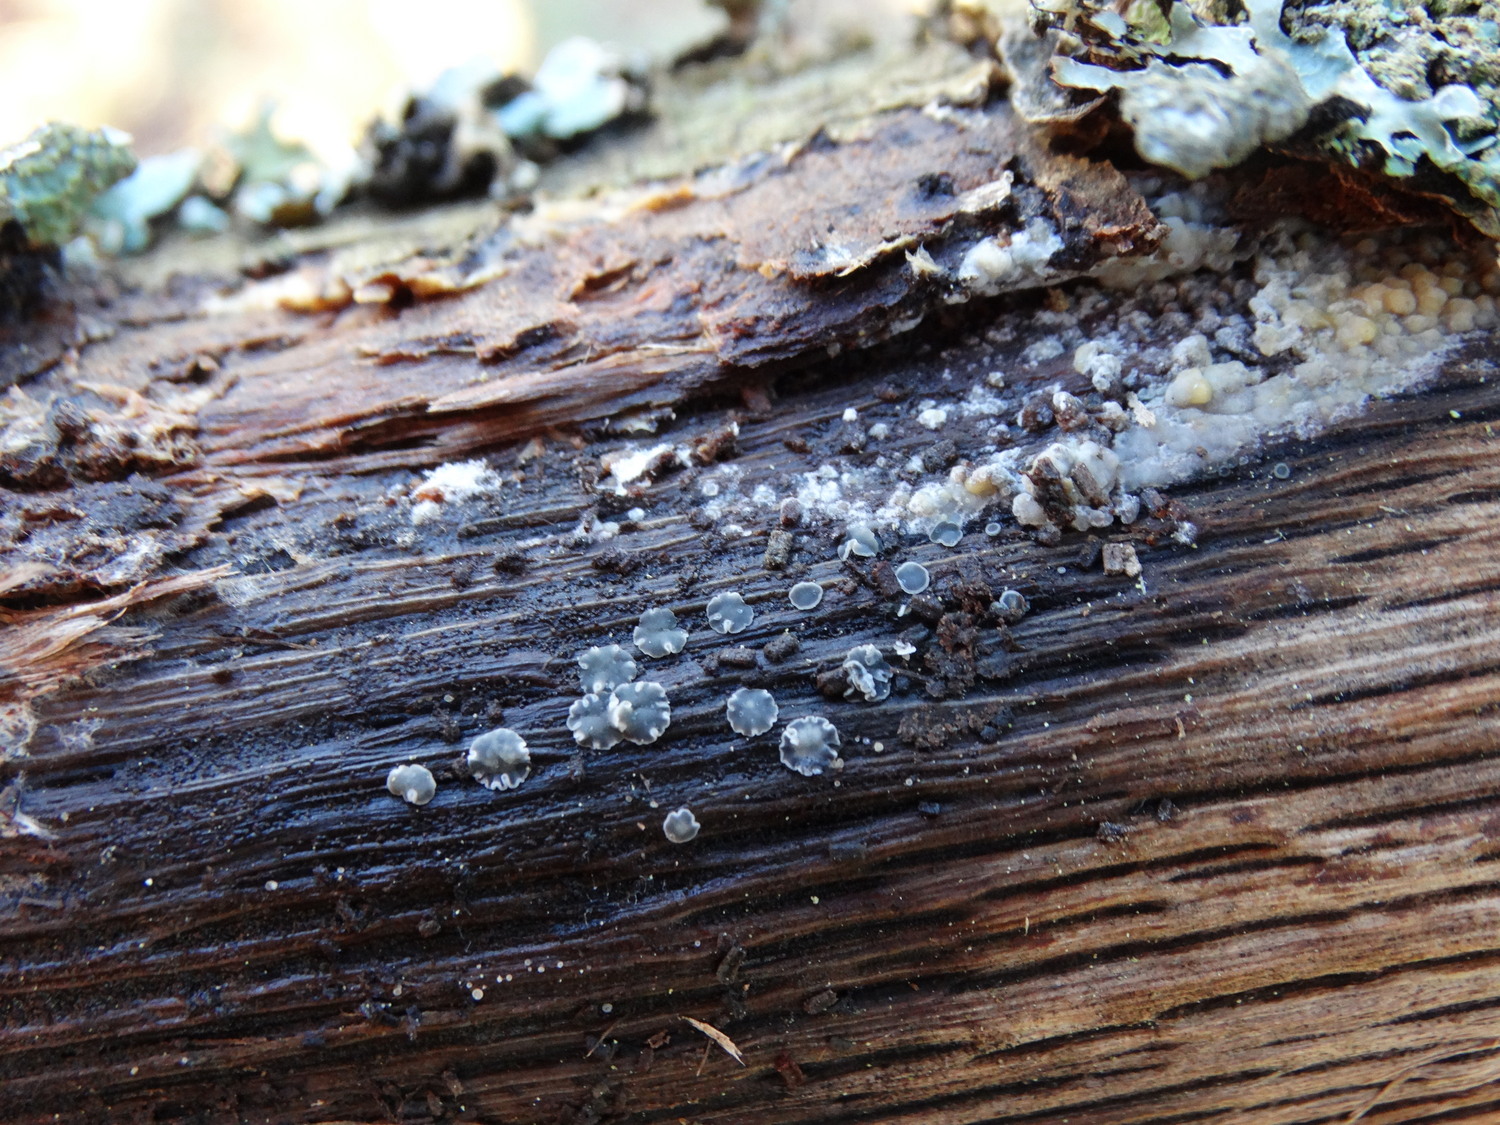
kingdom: Fungi
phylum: Ascomycota
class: Leotiomycetes
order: Helotiales
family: Mollisiaceae
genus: Mollisia
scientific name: Mollisia cinerea
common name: almindelig gråskive
